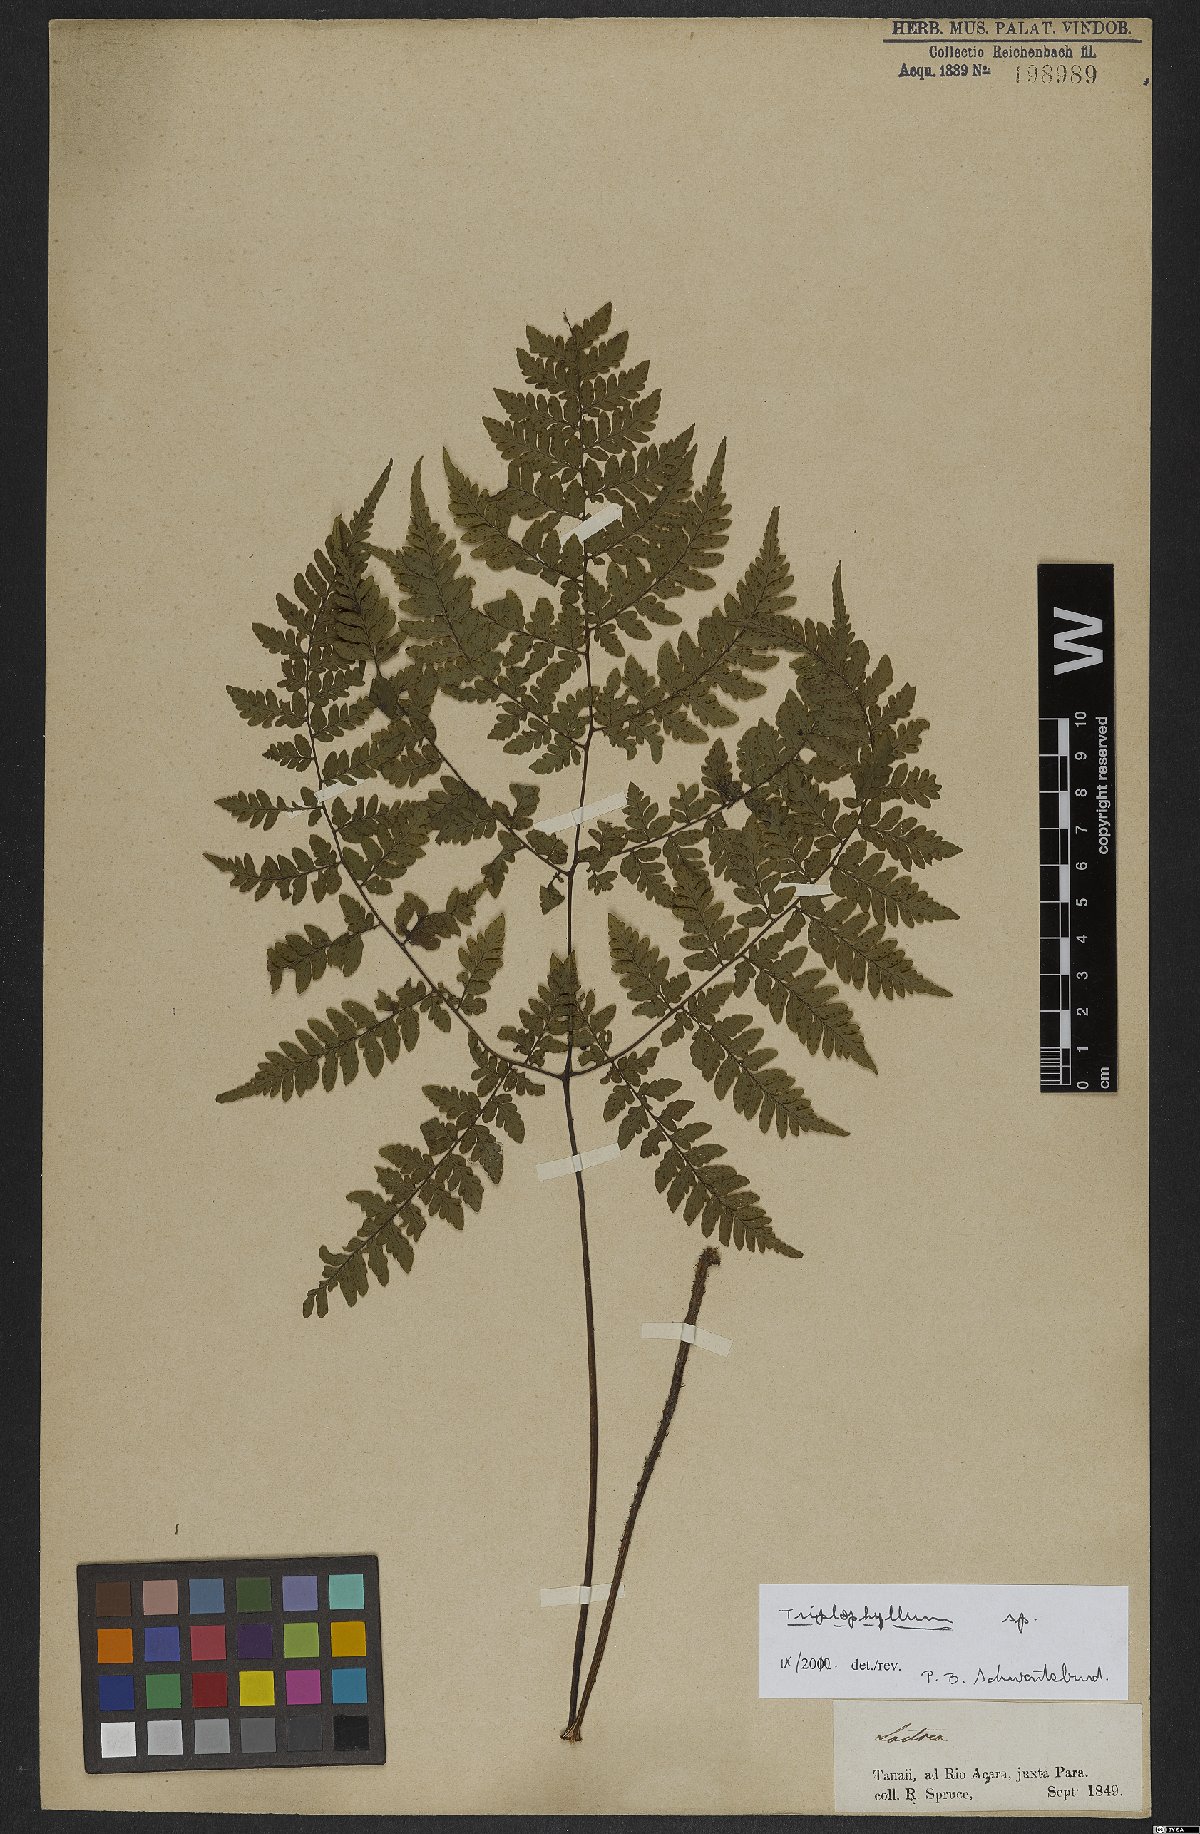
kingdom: Plantae
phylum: Tracheophyta
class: Polypodiopsida
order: Polypodiales
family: Tectariaceae
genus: Triplophyllum
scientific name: Triplophyllum
